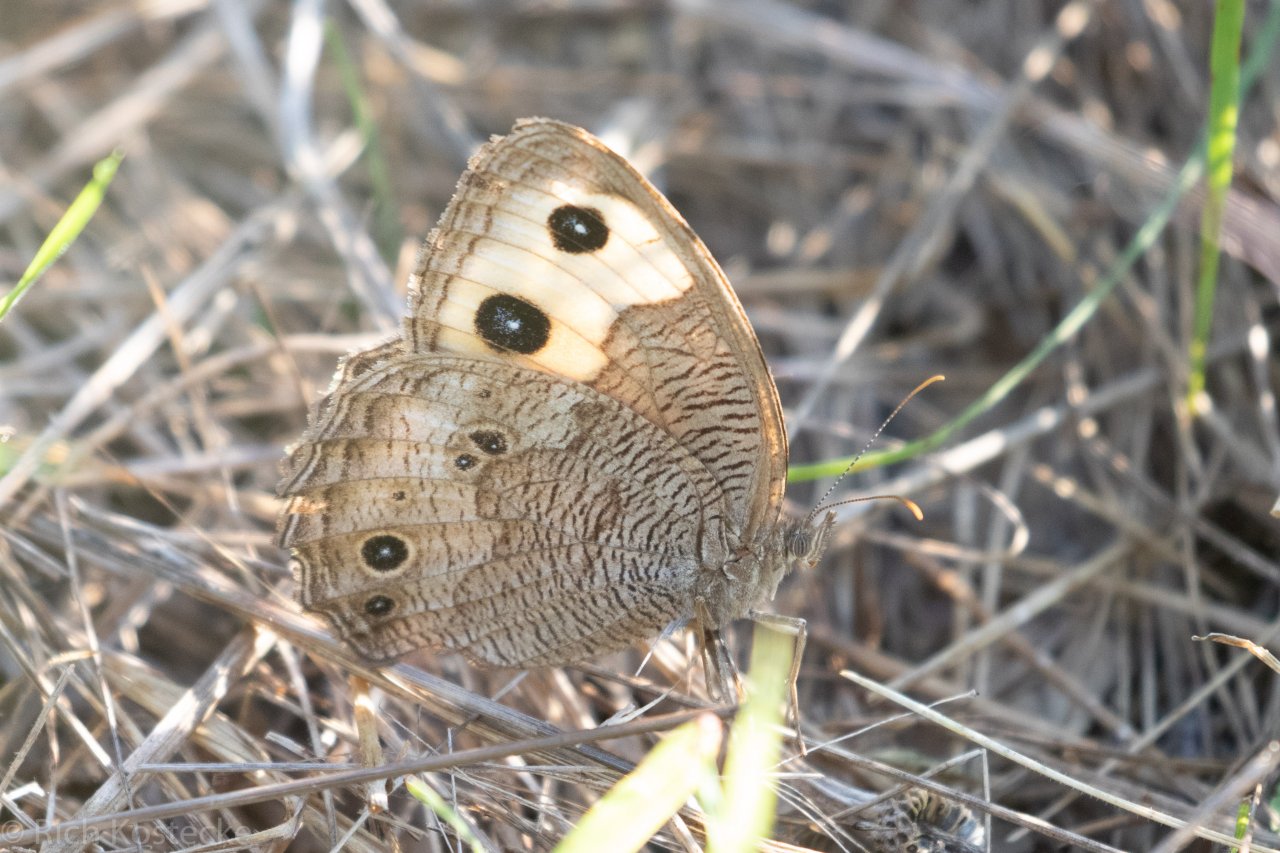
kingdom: Animalia
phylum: Arthropoda
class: Insecta
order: Lepidoptera
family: Nymphalidae
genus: Cercyonis
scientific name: Cercyonis pegala
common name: Common Wood-Nymph
